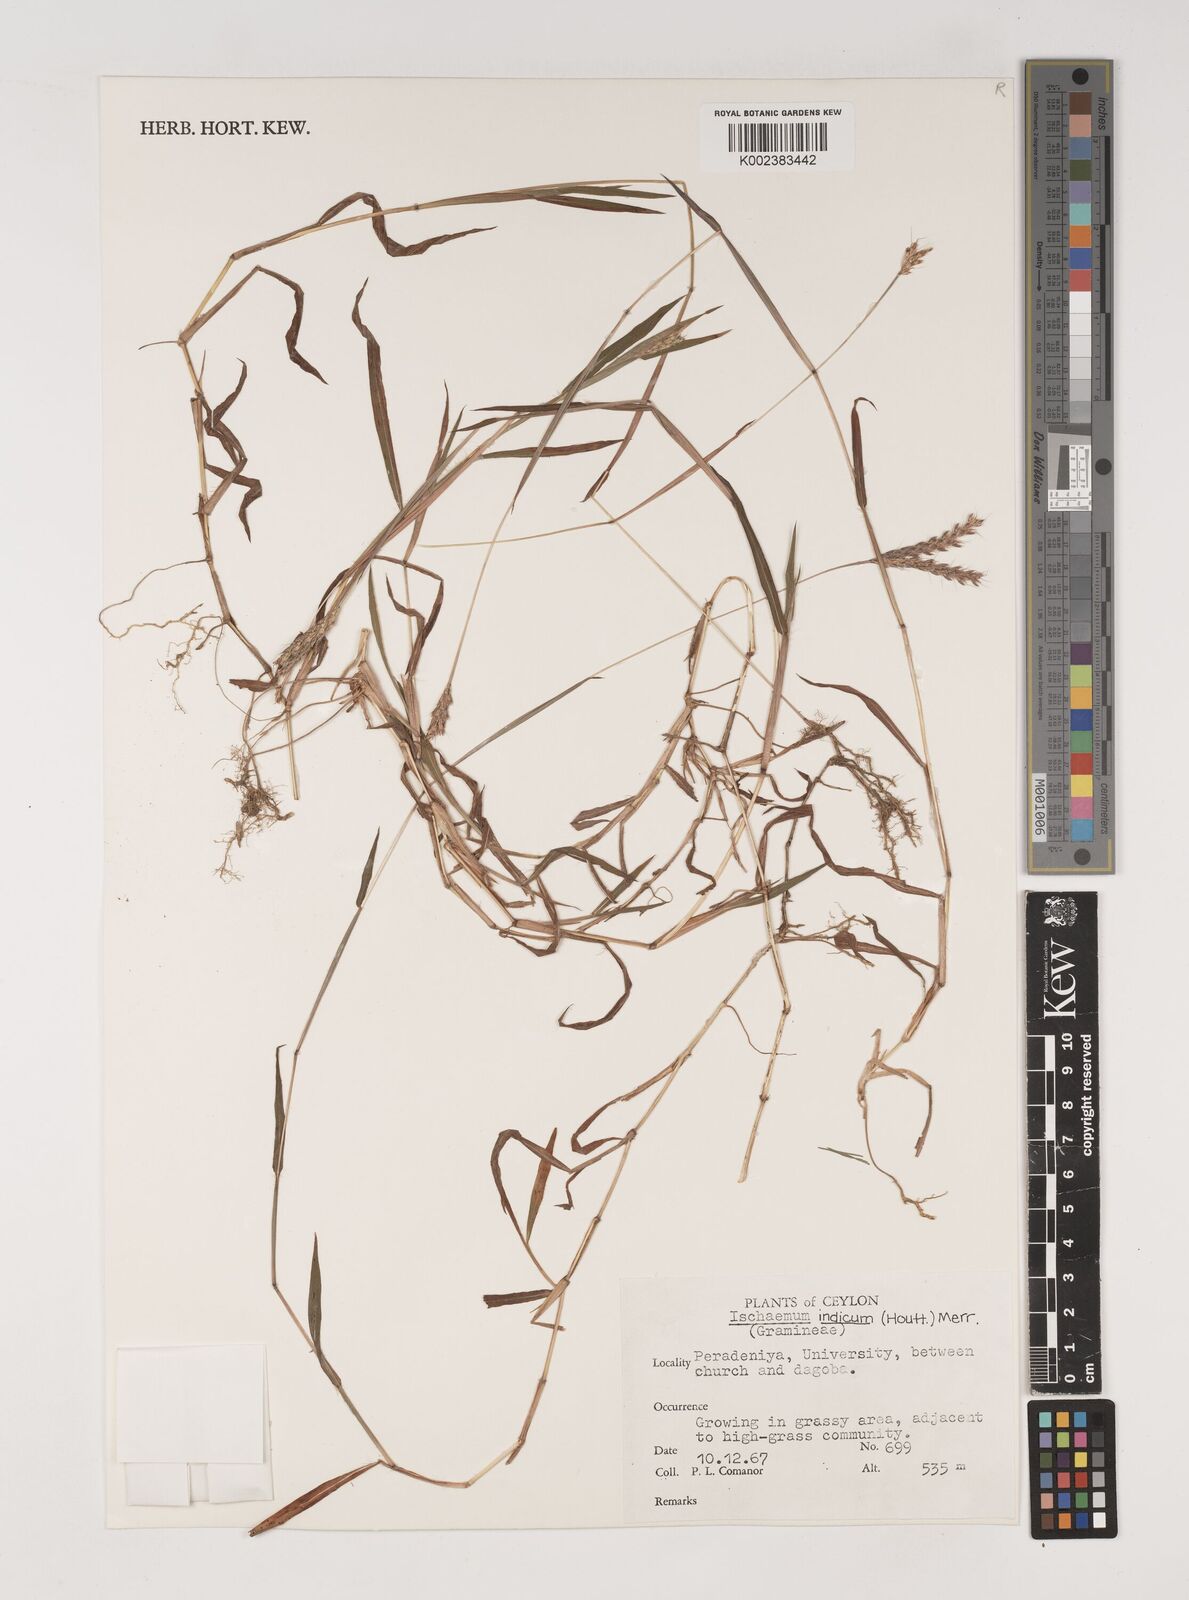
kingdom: Plantae
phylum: Tracheophyta
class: Liliopsida
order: Poales
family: Poaceae
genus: Polytrias
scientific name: Polytrias indica
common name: Indian murainagrass
